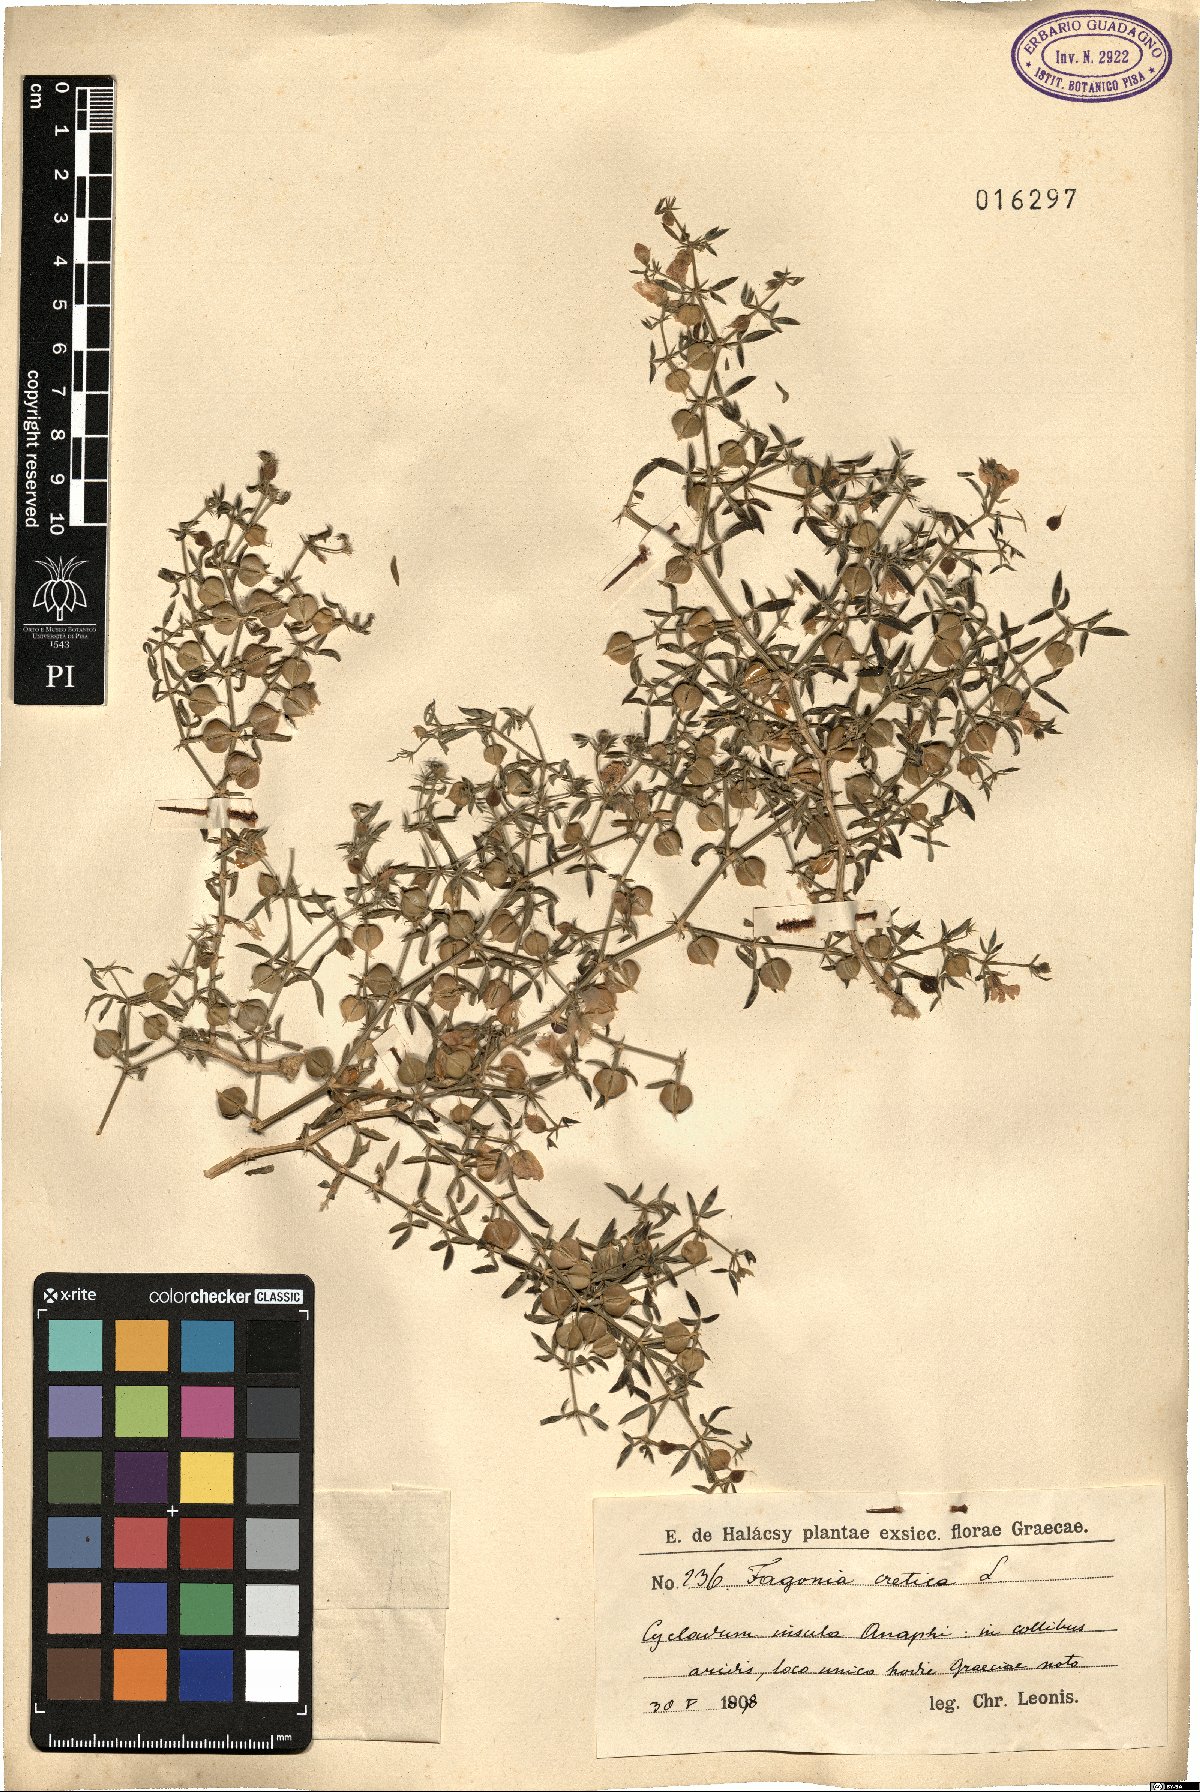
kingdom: Plantae
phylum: Tracheophyta
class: Magnoliopsida
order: Zygophyllales
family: Zygophyllaceae
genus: Fagonia
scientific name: Fagonia cretica
